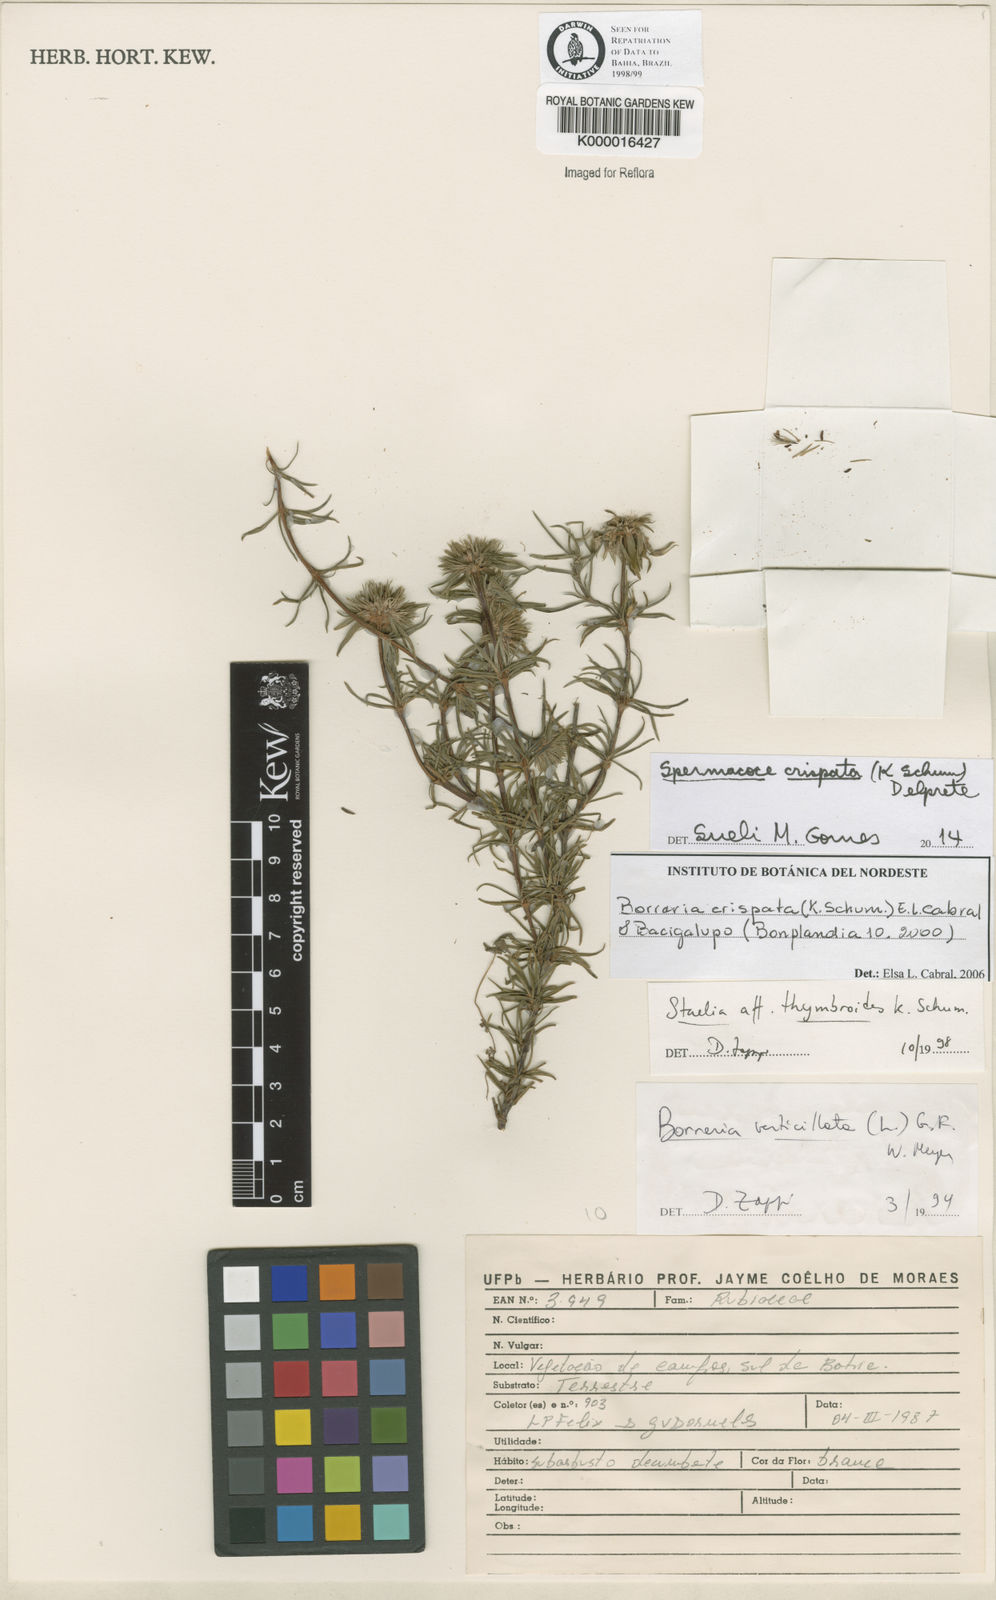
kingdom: Plantae
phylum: Tracheophyta
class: Magnoliopsida
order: Gentianales
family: Rubiaceae
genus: Spermacoce
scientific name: Spermacoce crispata
